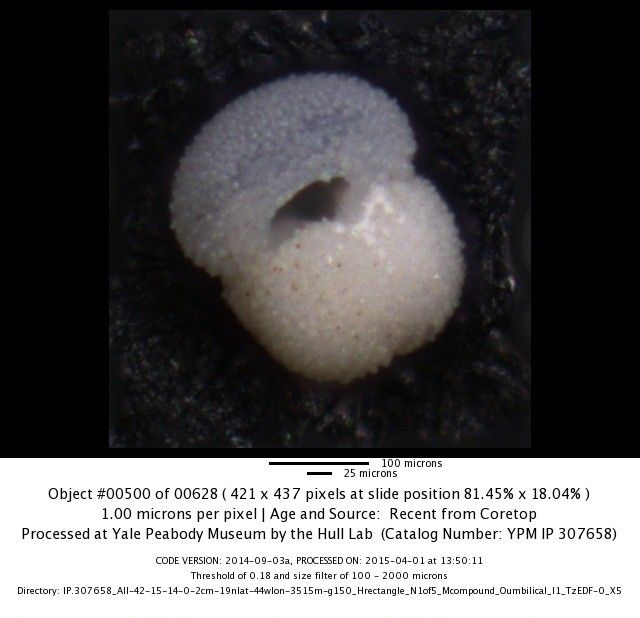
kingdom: Chromista
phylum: Foraminifera
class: Globothalamea
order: Rotaliida
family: Globigerinidae
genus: Globigerinoides
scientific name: Globigerinoides conglobatus
